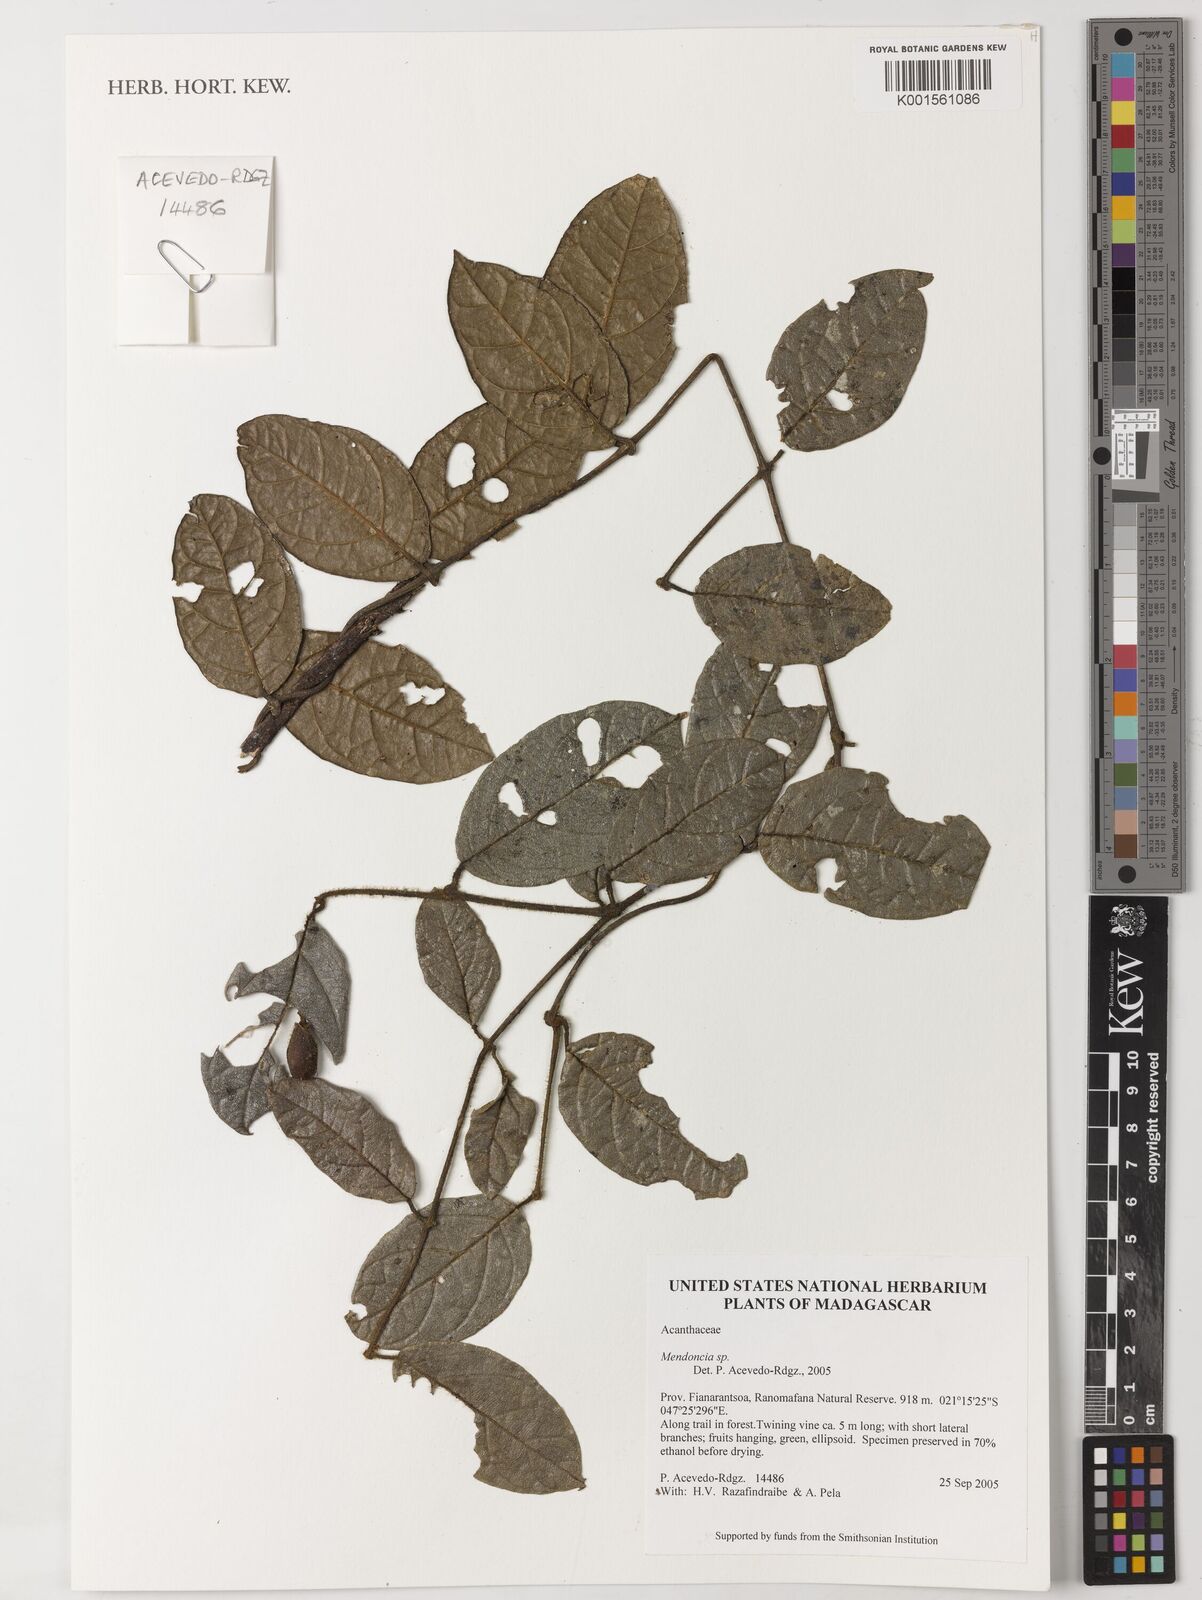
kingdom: Plantae
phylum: Tracheophyta
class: Magnoliopsida
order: Lamiales
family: Acanthaceae
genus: Mendoncia
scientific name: Mendoncia
